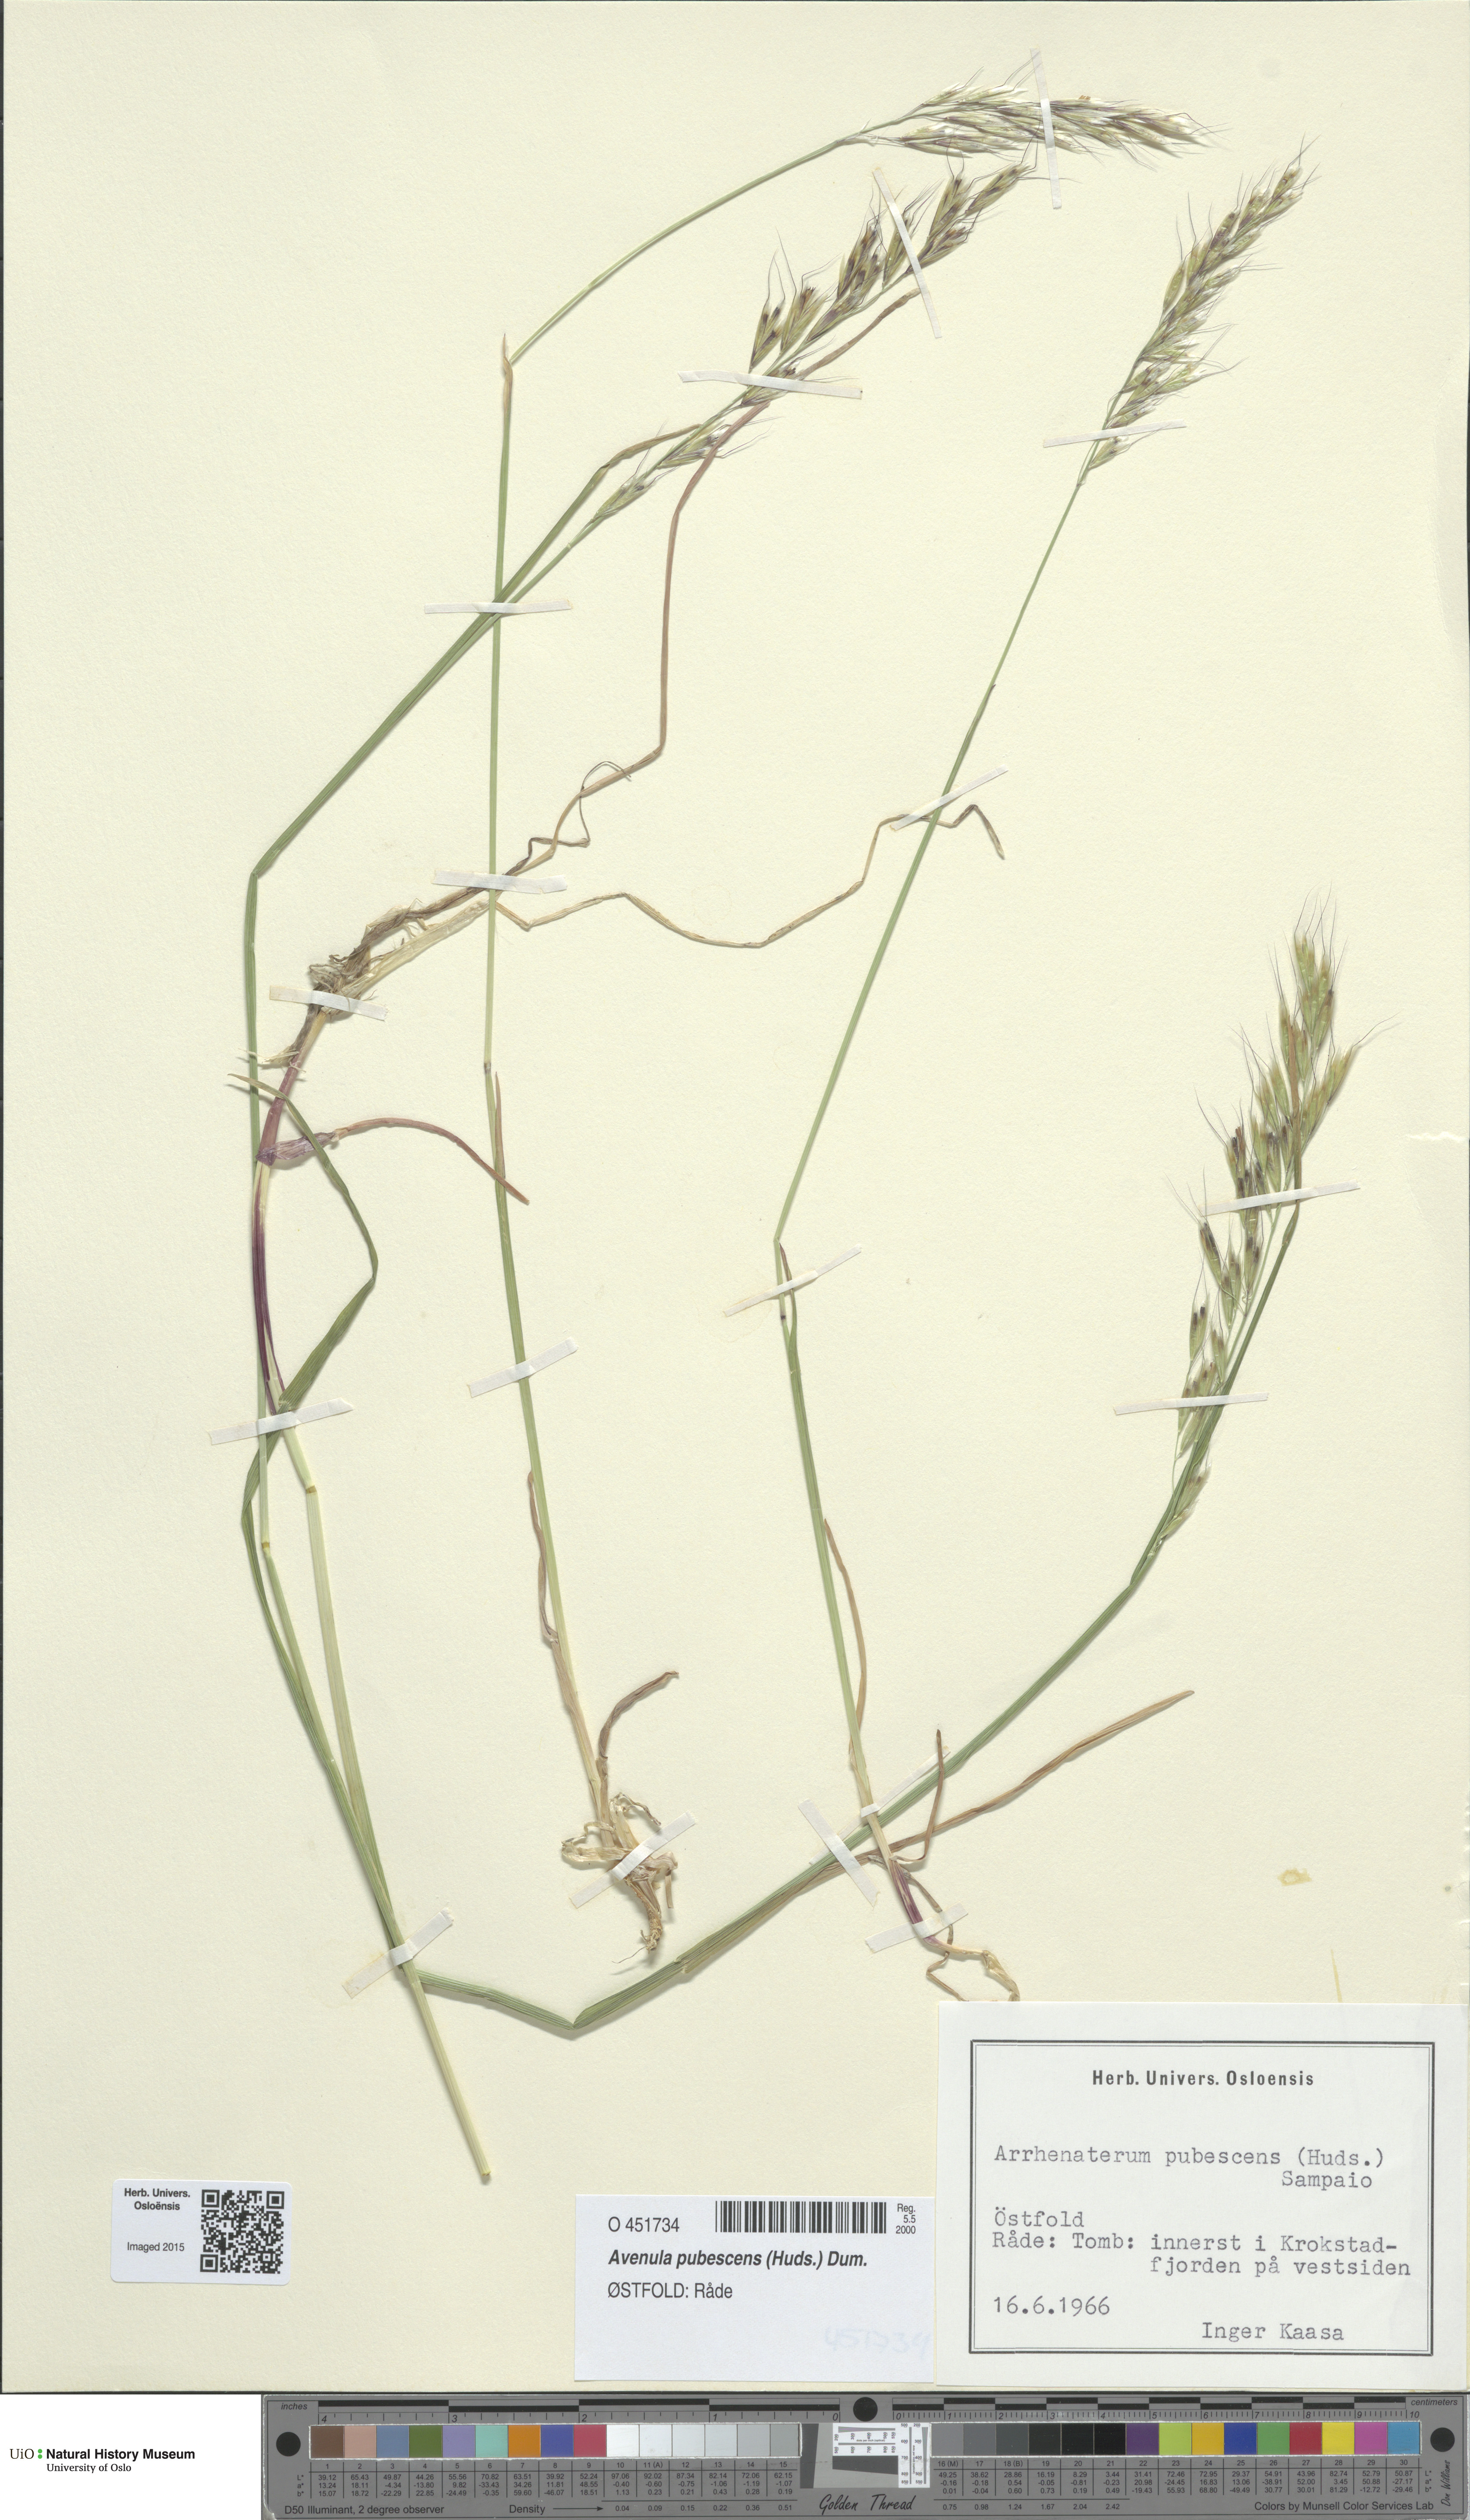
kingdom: Plantae
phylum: Tracheophyta
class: Liliopsida
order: Poales
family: Poaceae
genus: Avenula
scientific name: Avenula pubescens
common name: Downy alpine oatgrass
